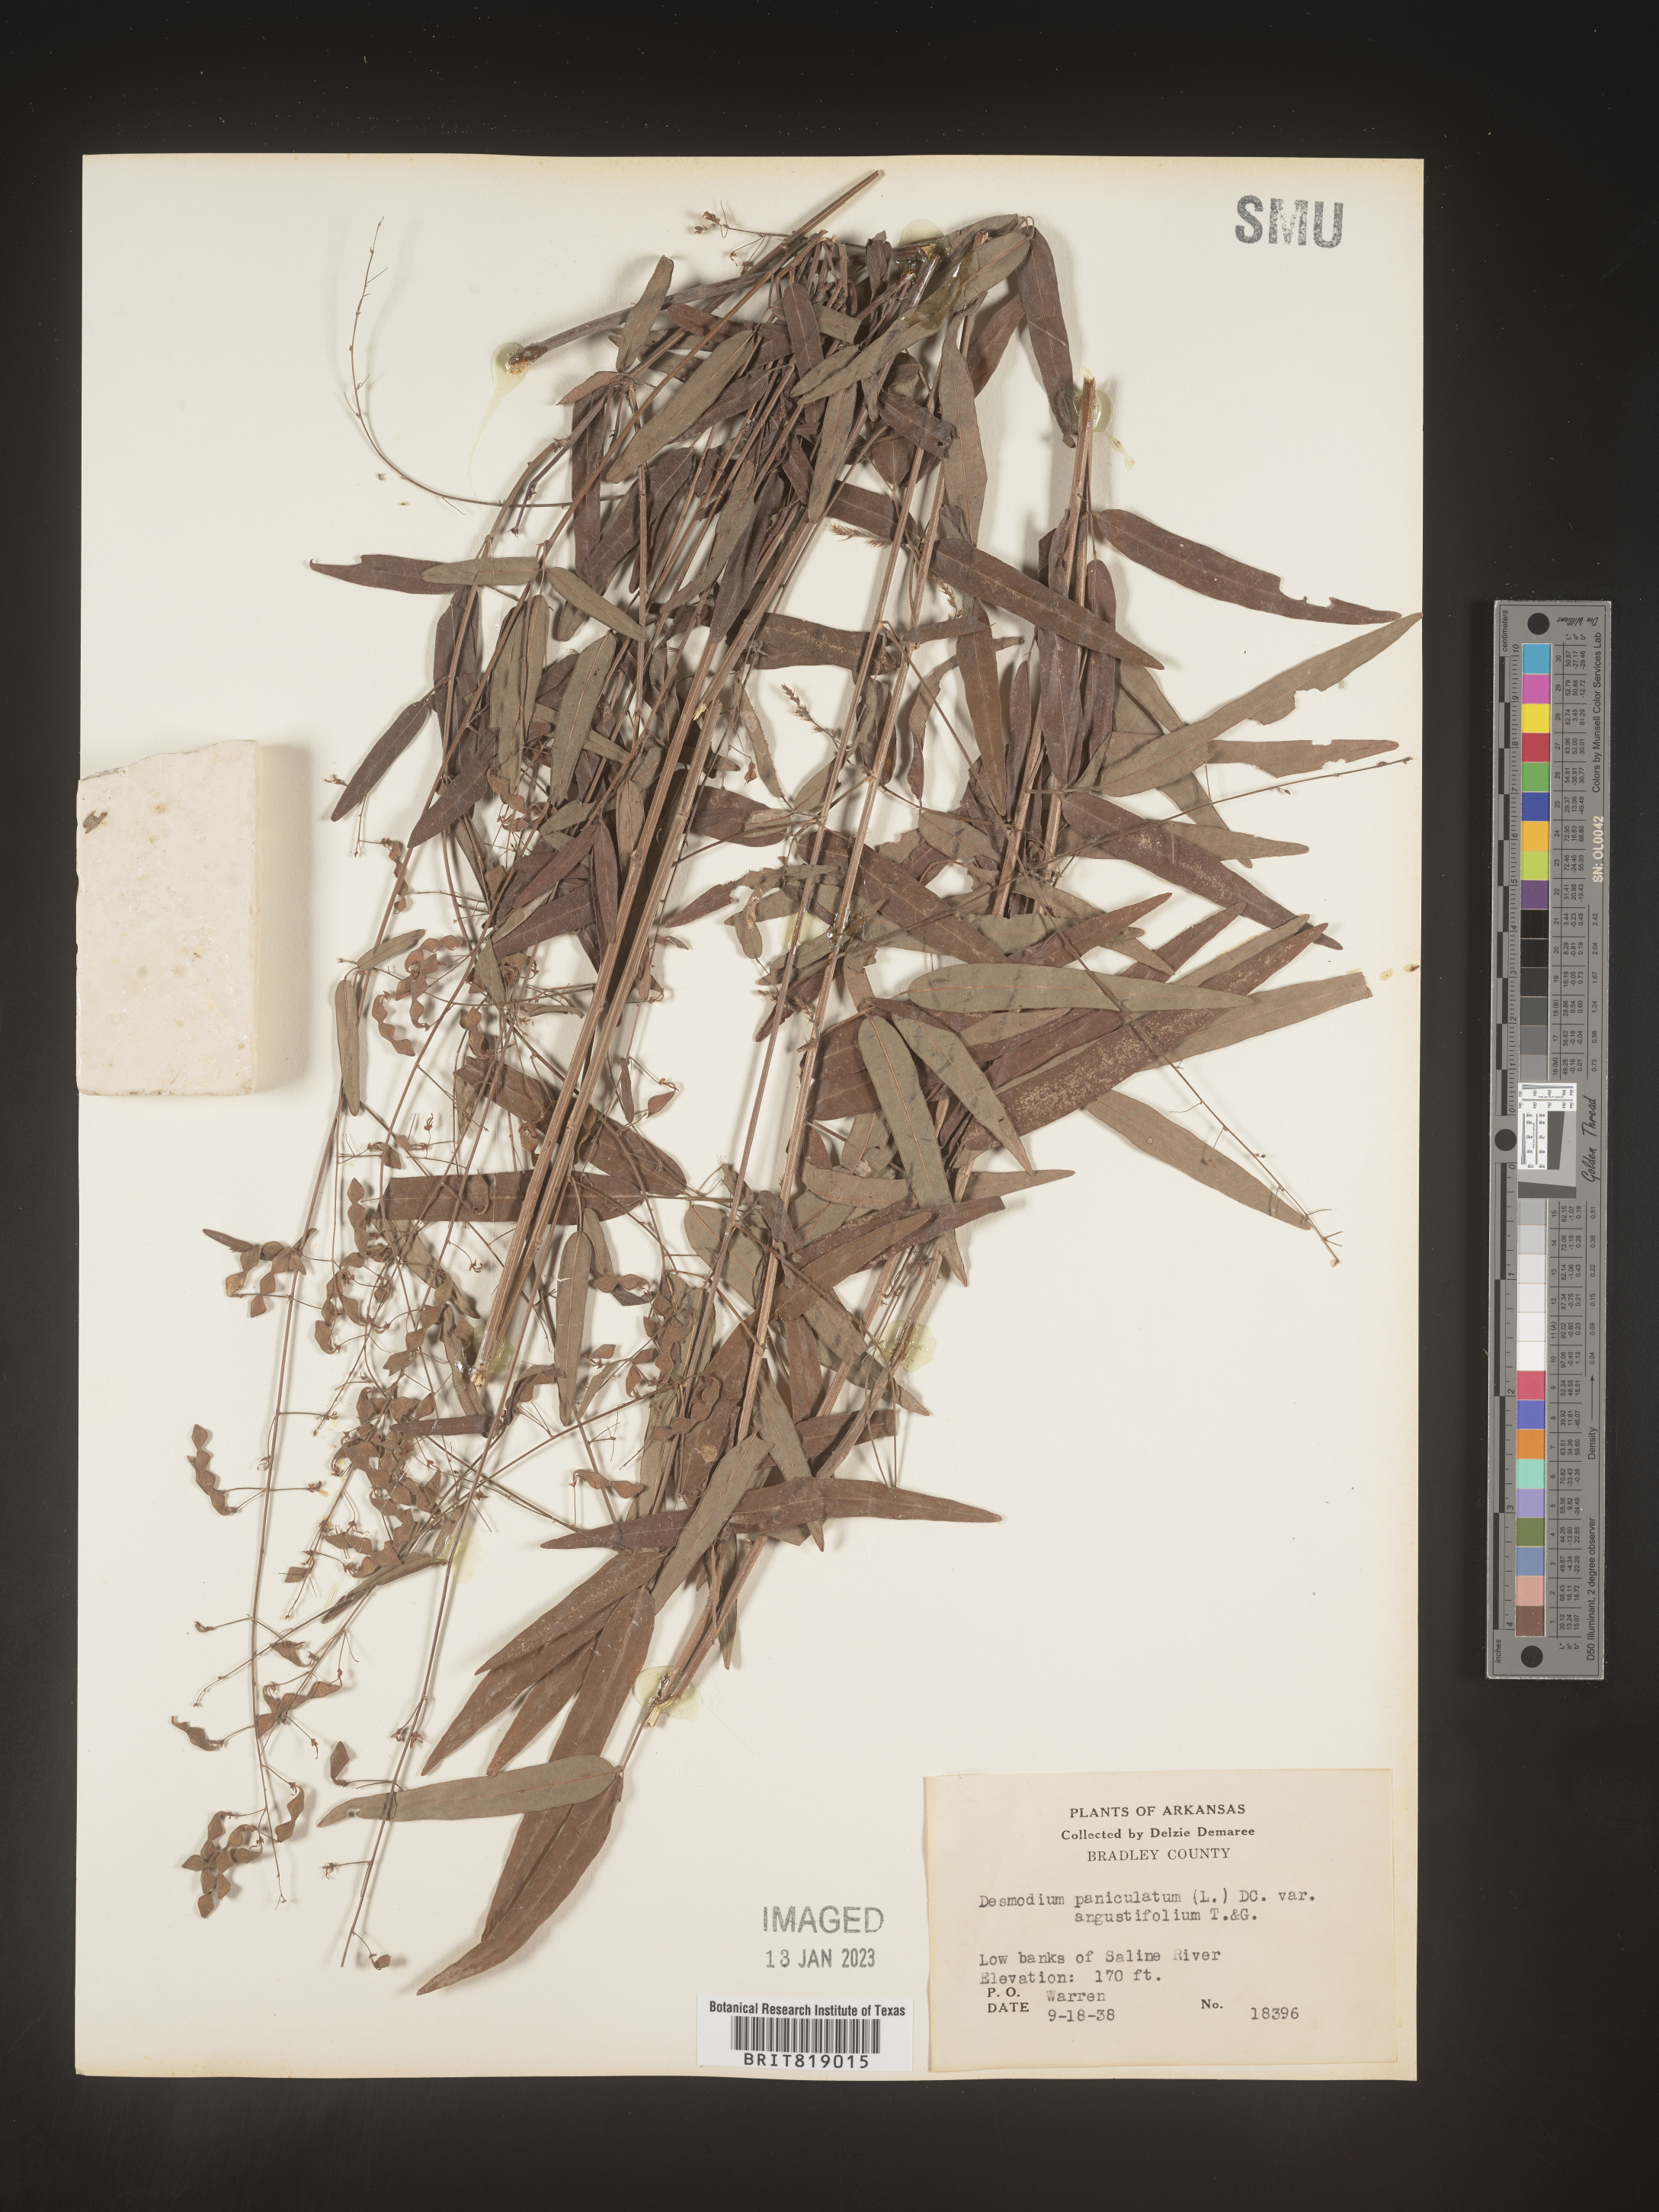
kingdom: Plantae
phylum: Tracheophyta
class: Magnoliopsida
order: Fabales
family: Fabaceae
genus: Desmodium
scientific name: Desmodium paniculatum
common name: Panicled tick-clover
